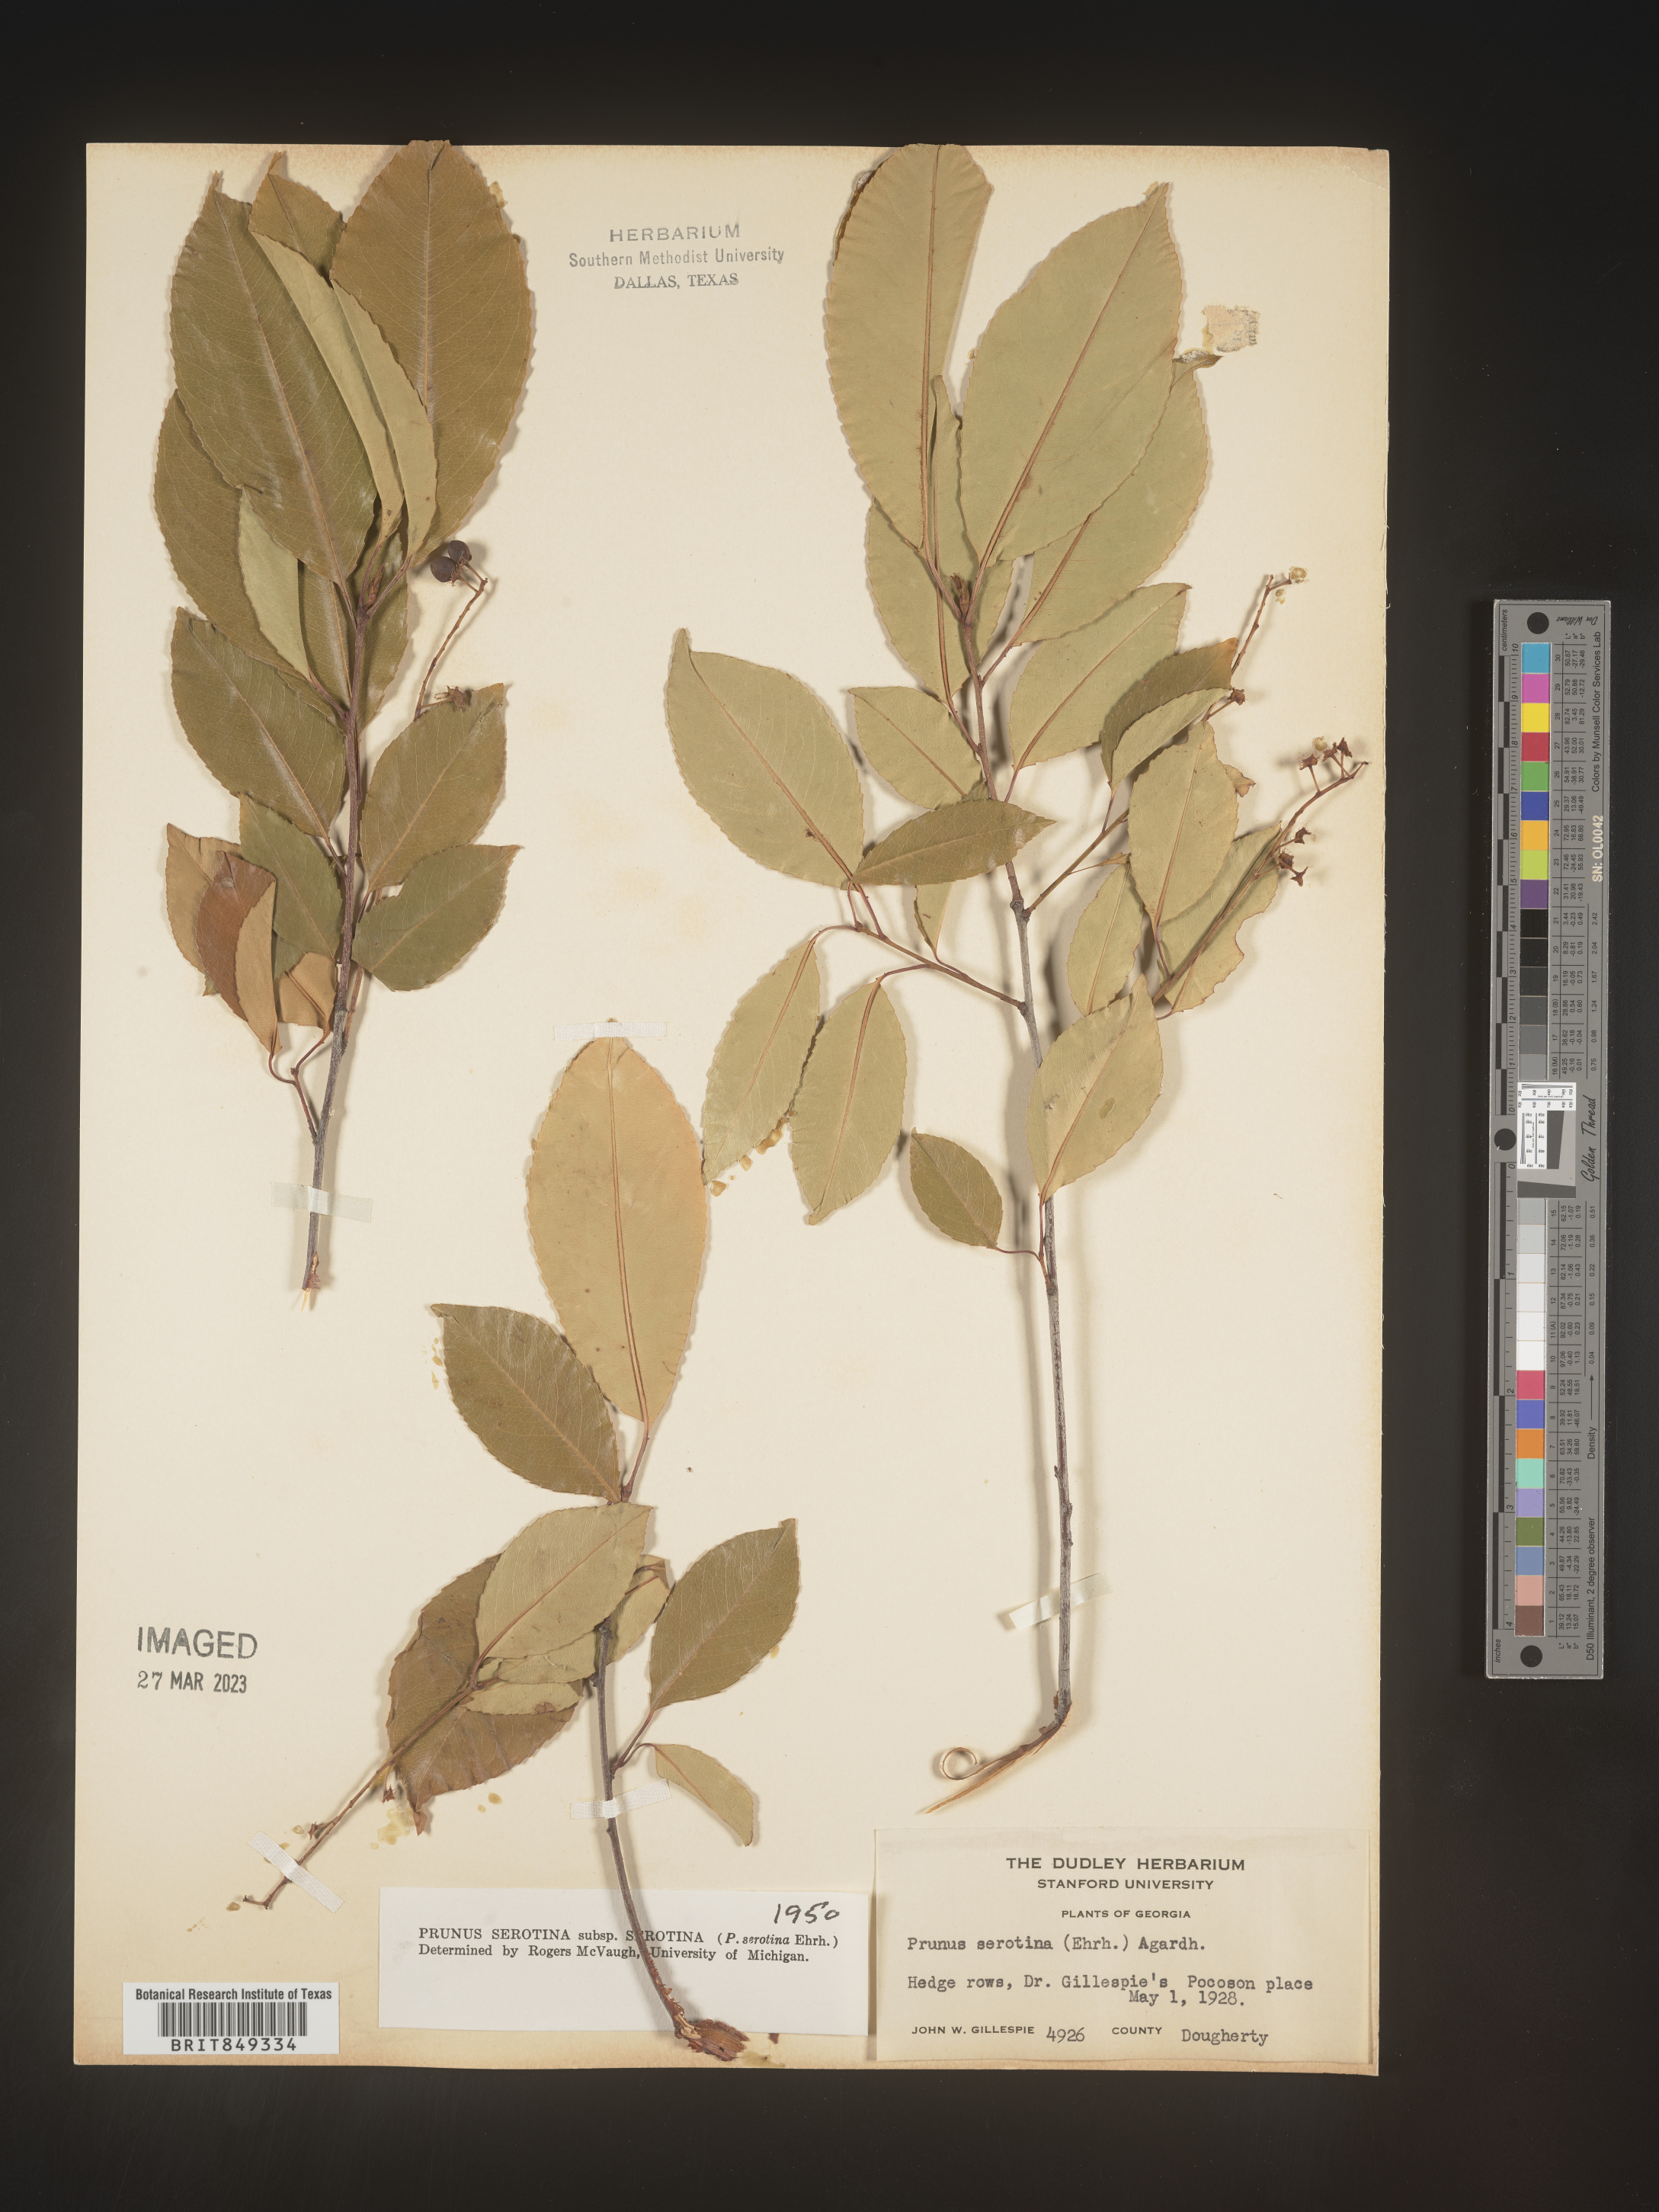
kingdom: Plantae
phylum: Tracheophyta
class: Magnoliopsida
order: Rosales
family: Rosaceae
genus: Prunus
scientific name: Prunus serotina
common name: Black cherry
